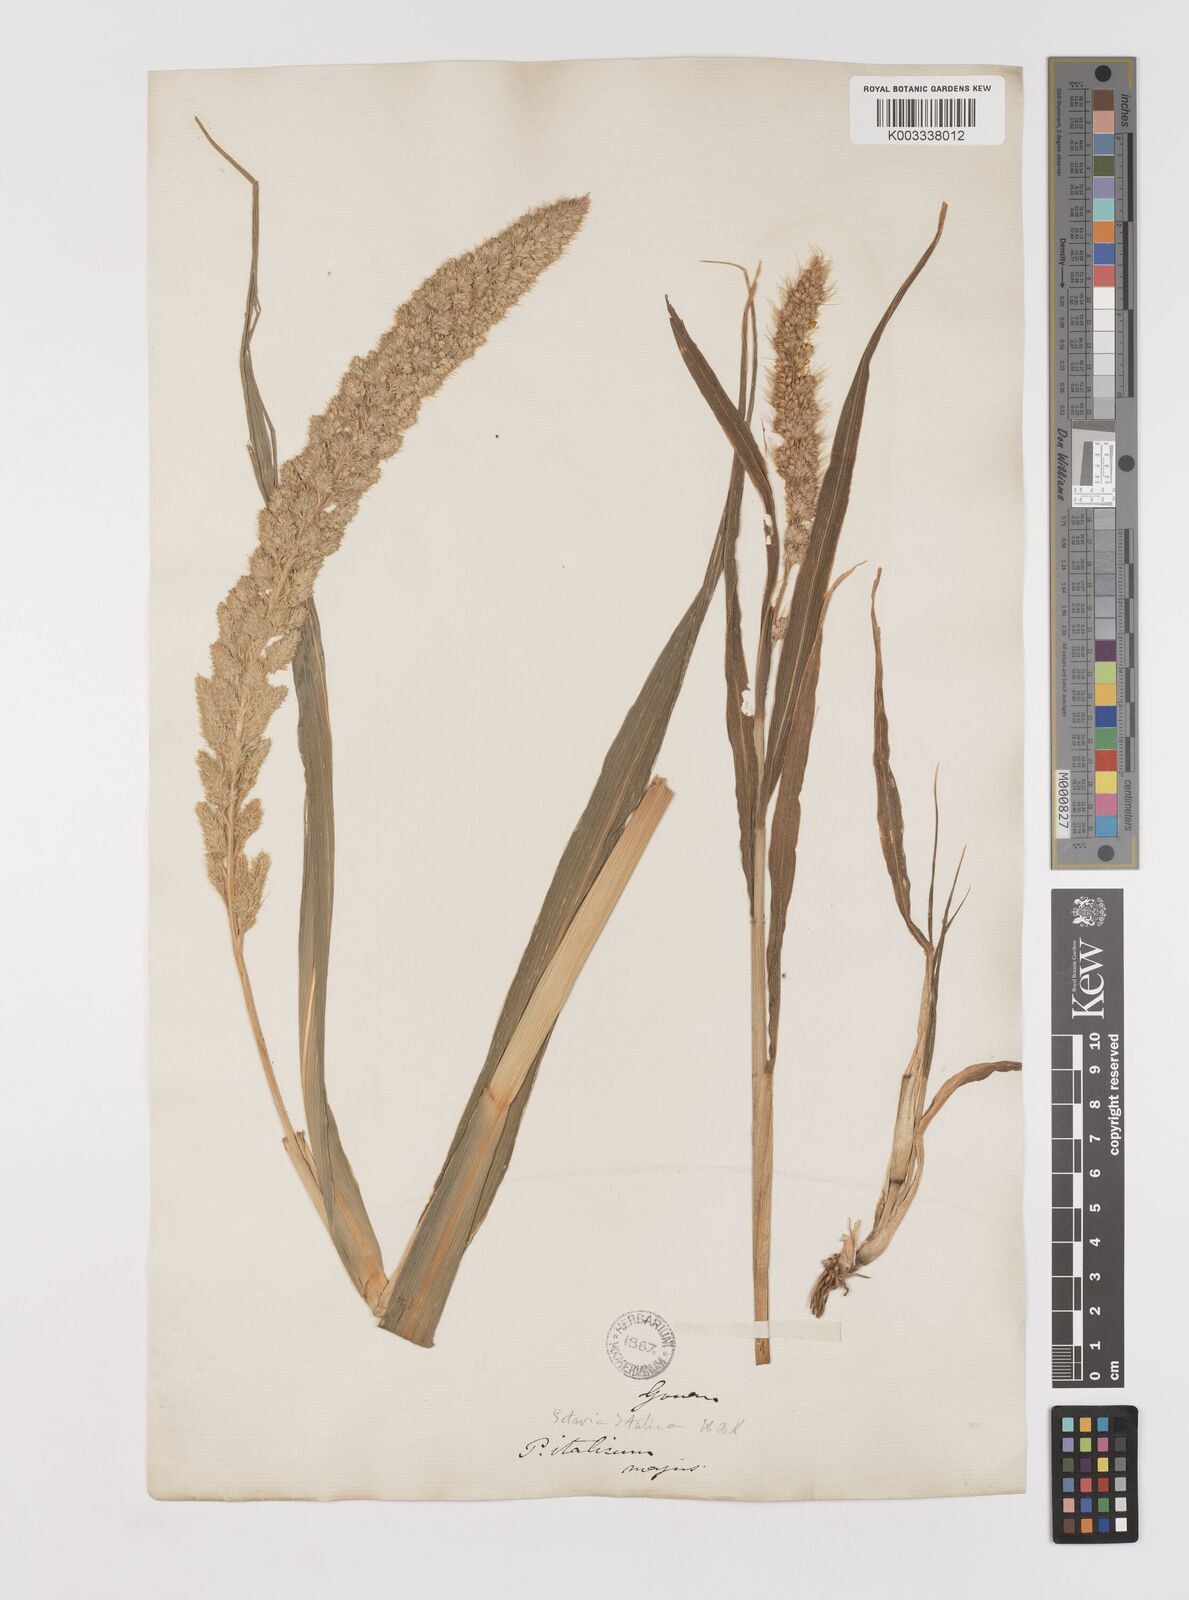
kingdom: Plantae
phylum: Tracheophyta
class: Liliopsida
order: Poales
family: Poaceae
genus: Setaria
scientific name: Setaria italica
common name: Foxtail bristle-grass
